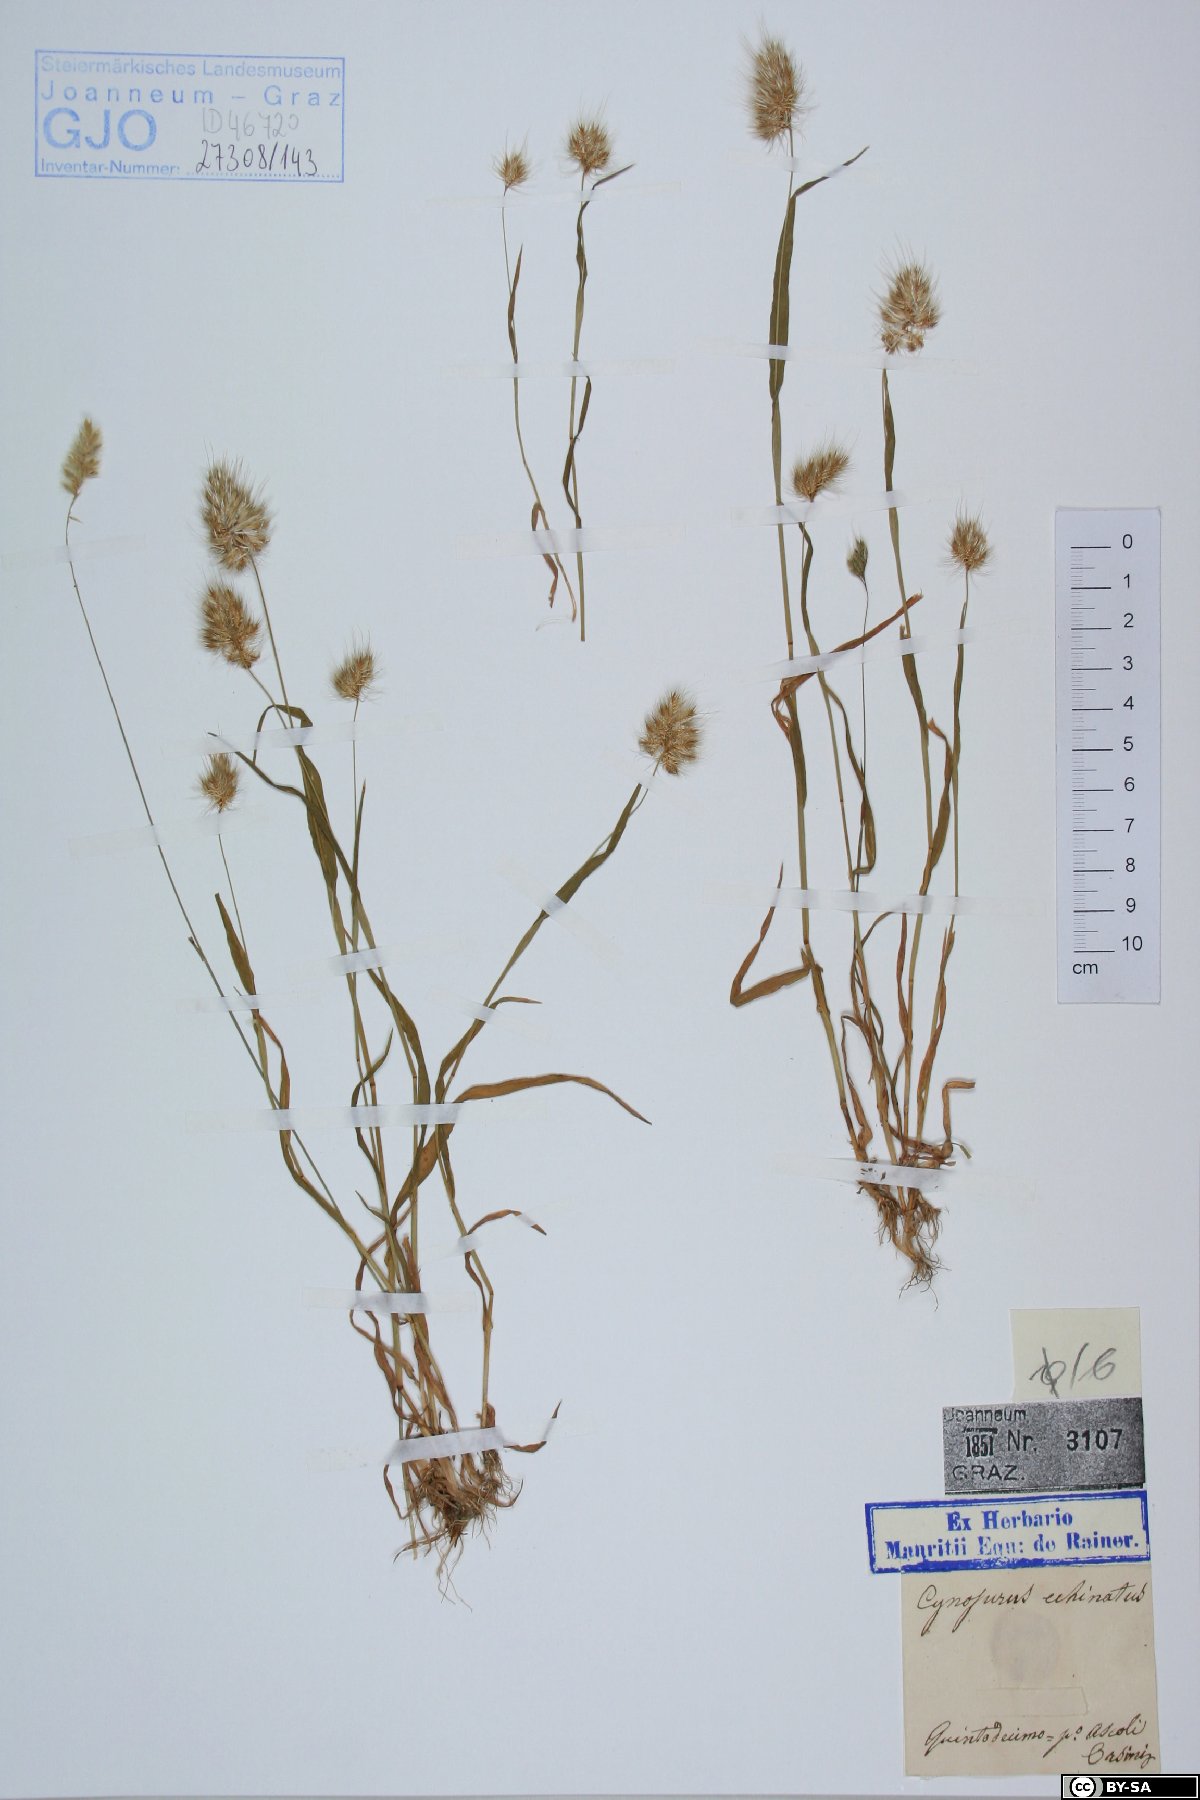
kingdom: Plantae
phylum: Tracheophyta
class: Liliopsida
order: Poales
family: Poaceae
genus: Cynosurus
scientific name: Cynosurus echinatus
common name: Rough dog's-tail
